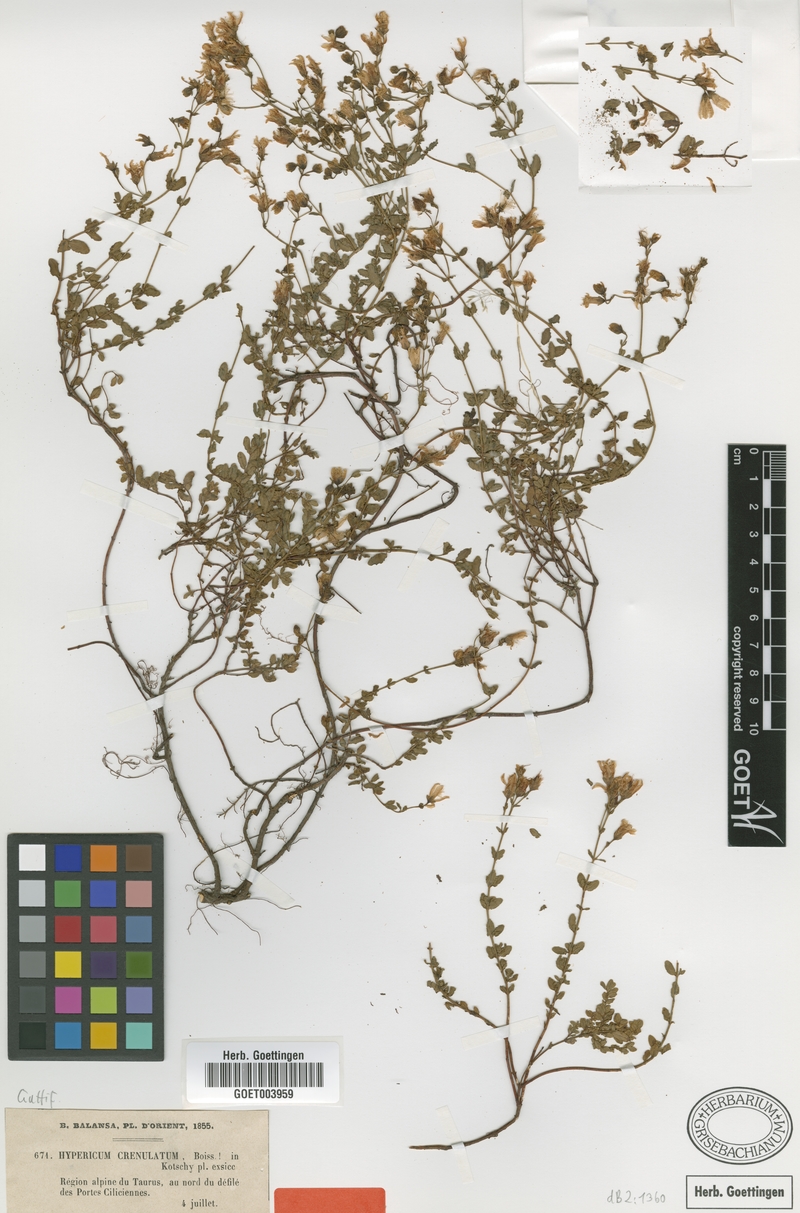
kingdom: Plantae
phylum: Tracheophyta
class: Magnoliopsida
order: Malpighiales
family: Hypericaceae
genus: Hypericum
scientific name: Hypericum crenulatum
